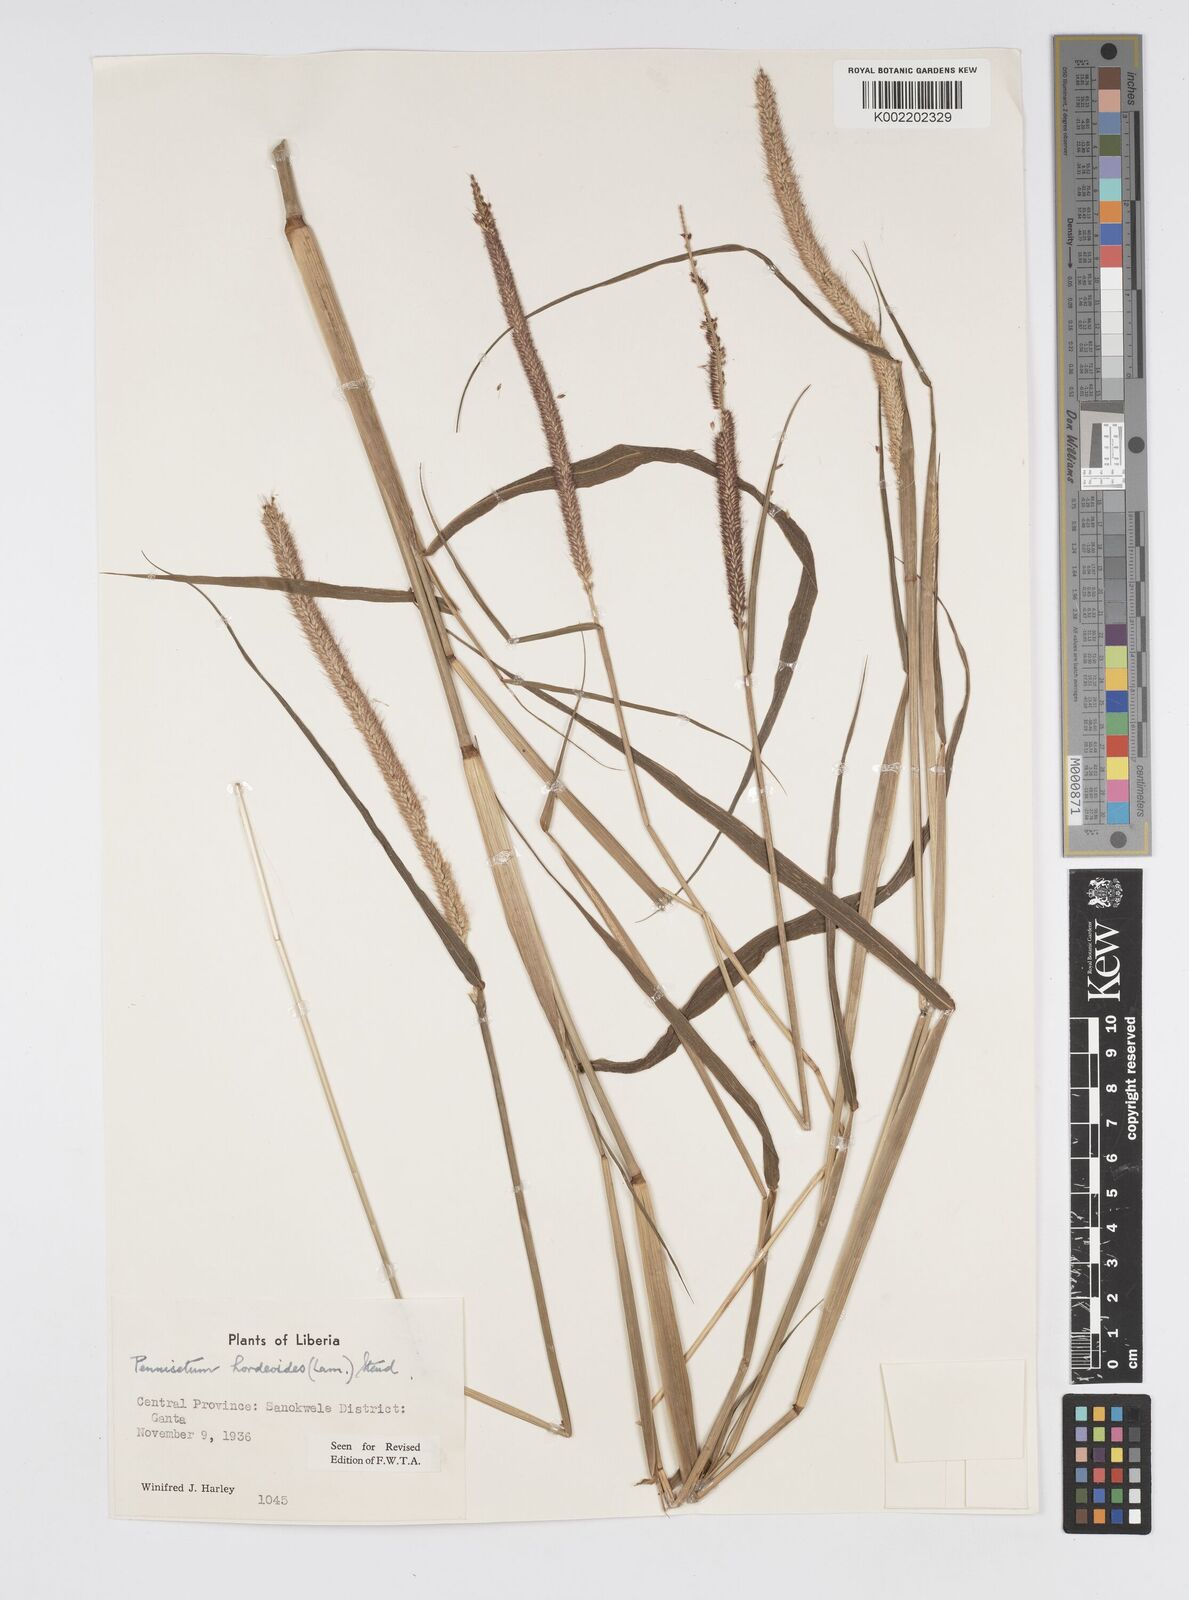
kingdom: Plantae
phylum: Tracheophyta
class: Liliopsida
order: Poales
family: Poaceae
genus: Cenchrus
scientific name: Cenchrus hordeoides
